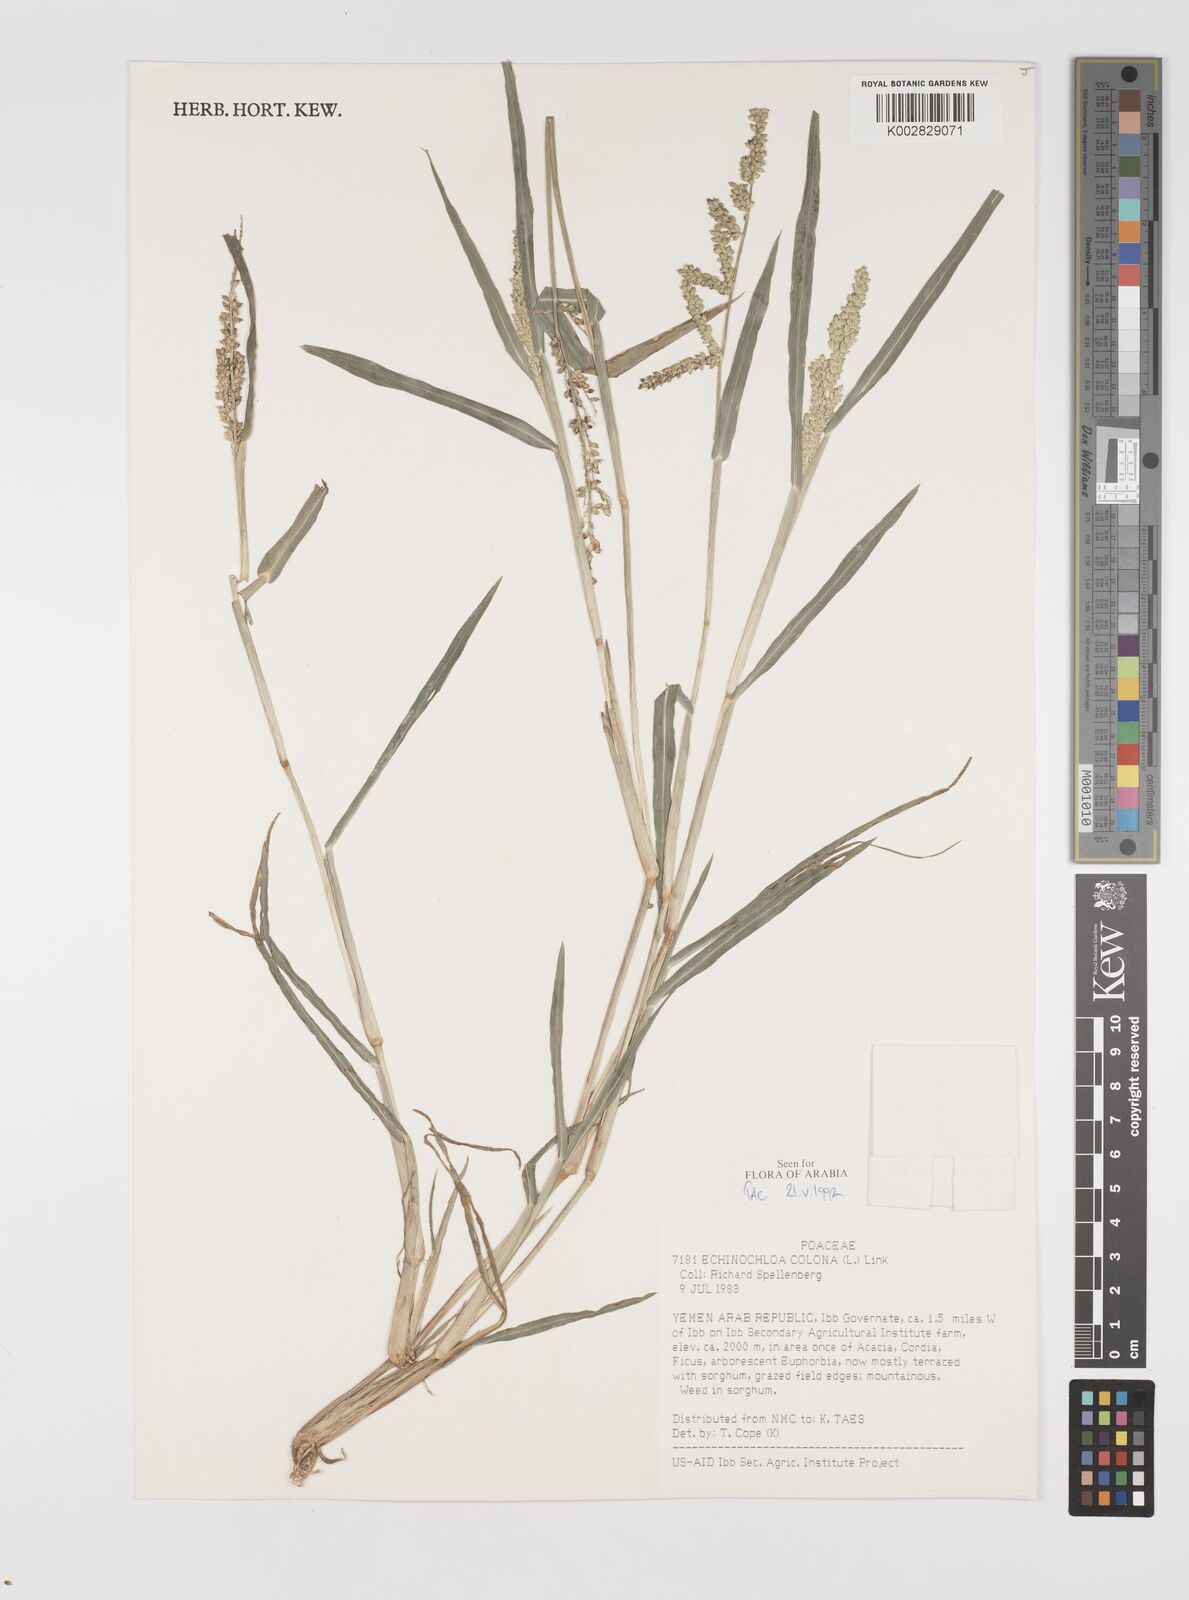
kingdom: Plantae
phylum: Tracheophyta
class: Liliopsida
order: Poales
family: Poaceae
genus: Echinochloa
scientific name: Echinochloa colonum
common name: Jungle rice
